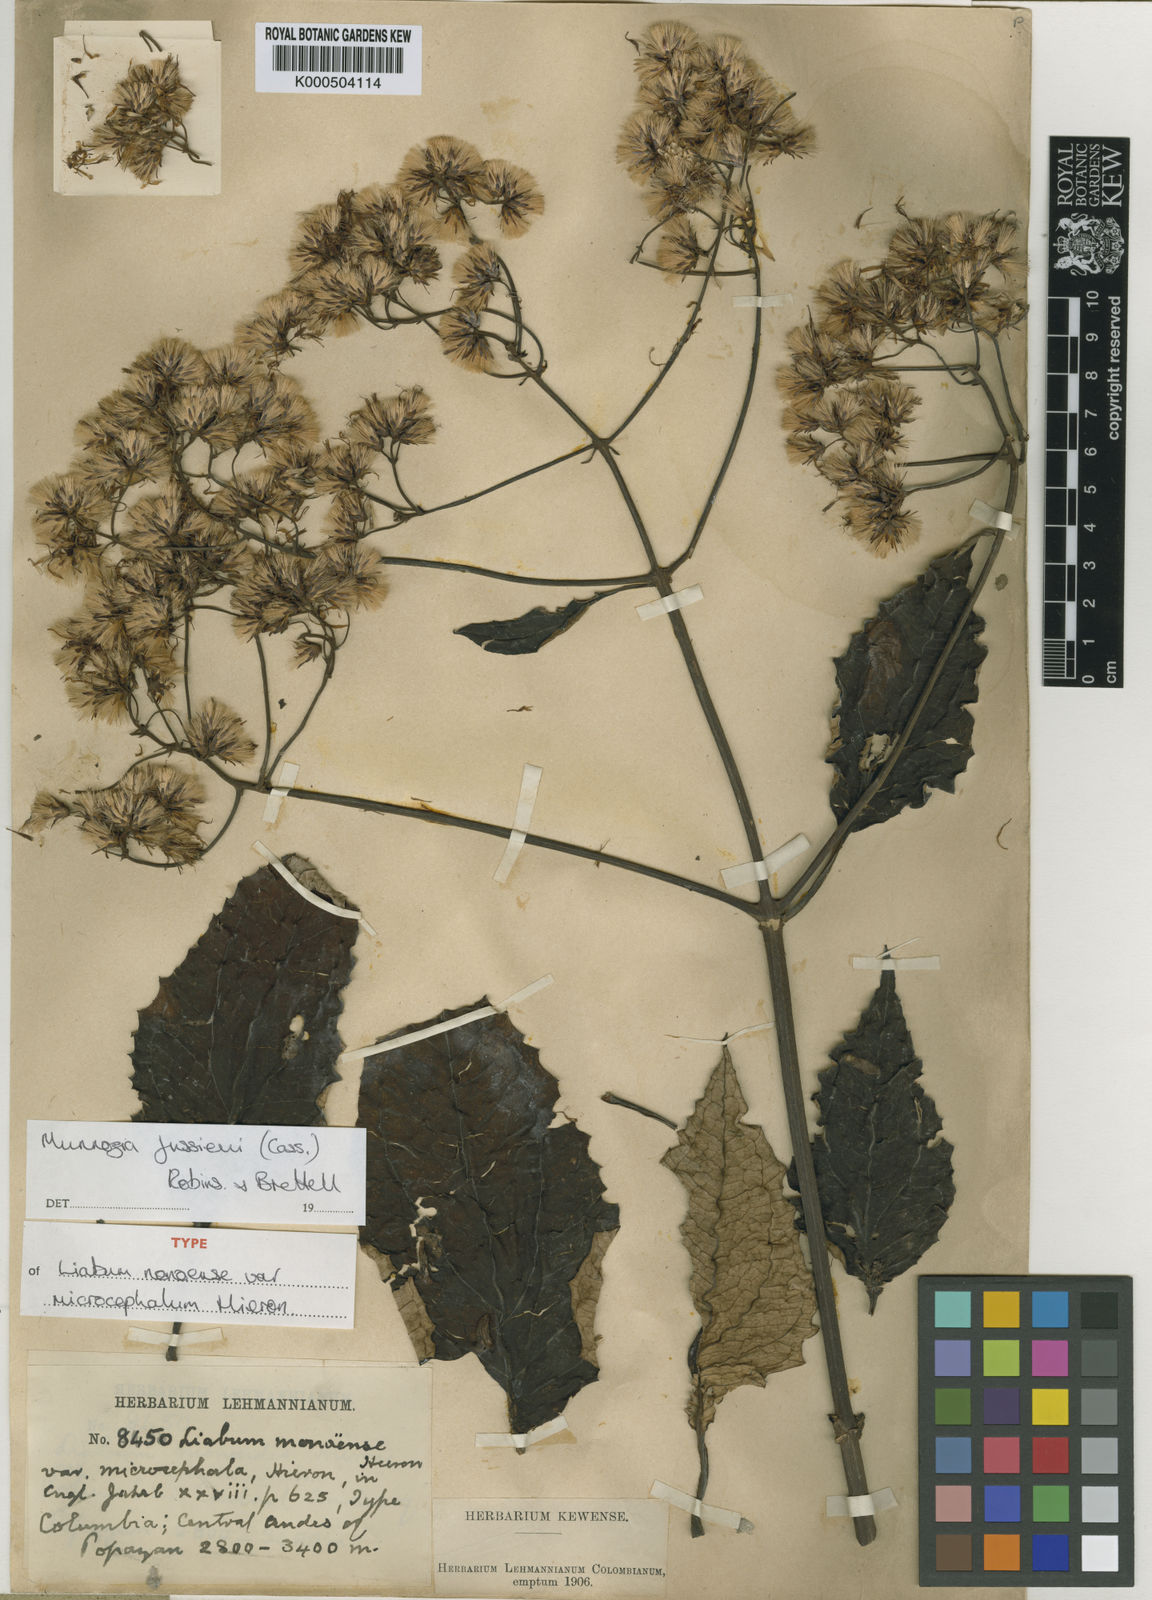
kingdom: Plantae
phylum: Tracheophyta
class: Magnoliopsida
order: Asterales
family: Asteraceae
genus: Munnozia
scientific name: Munnozia jussieui
